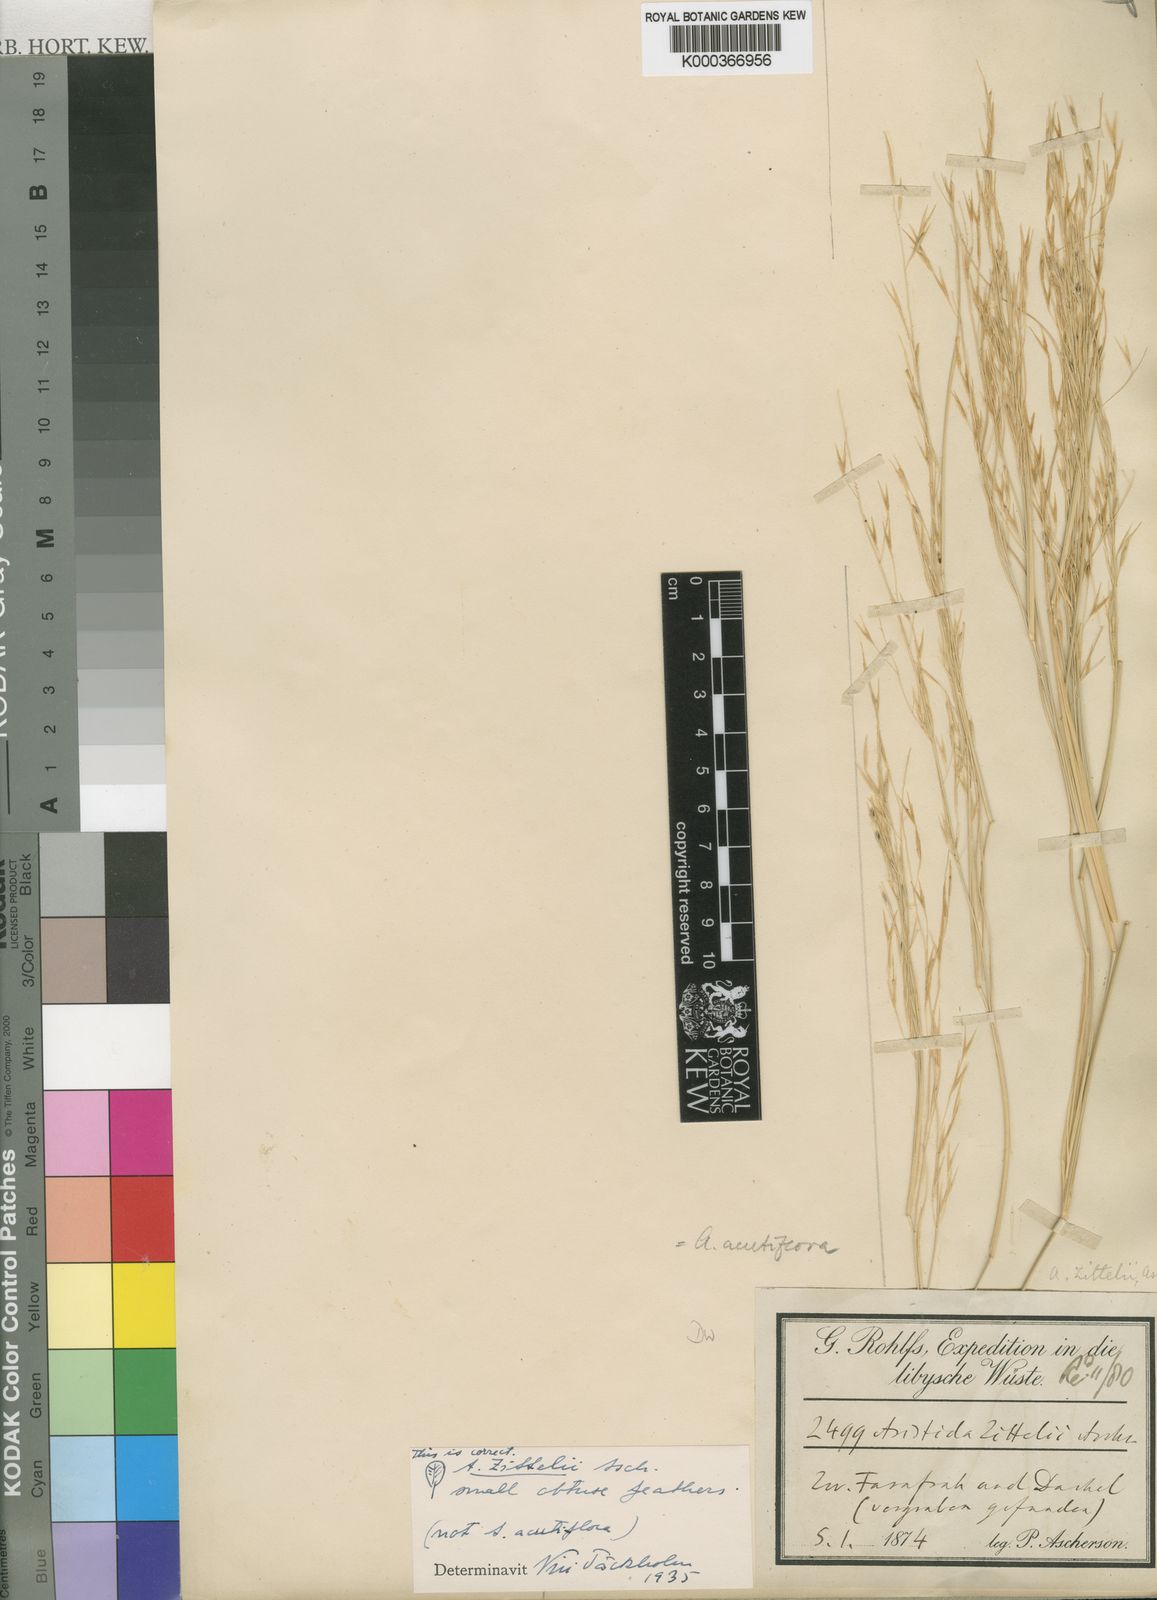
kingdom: Plantae
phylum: Tracheophyta
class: Liliopsida
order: Poales
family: Poaceae
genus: Stipagrostis
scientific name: Stipagrostis acutiflora
